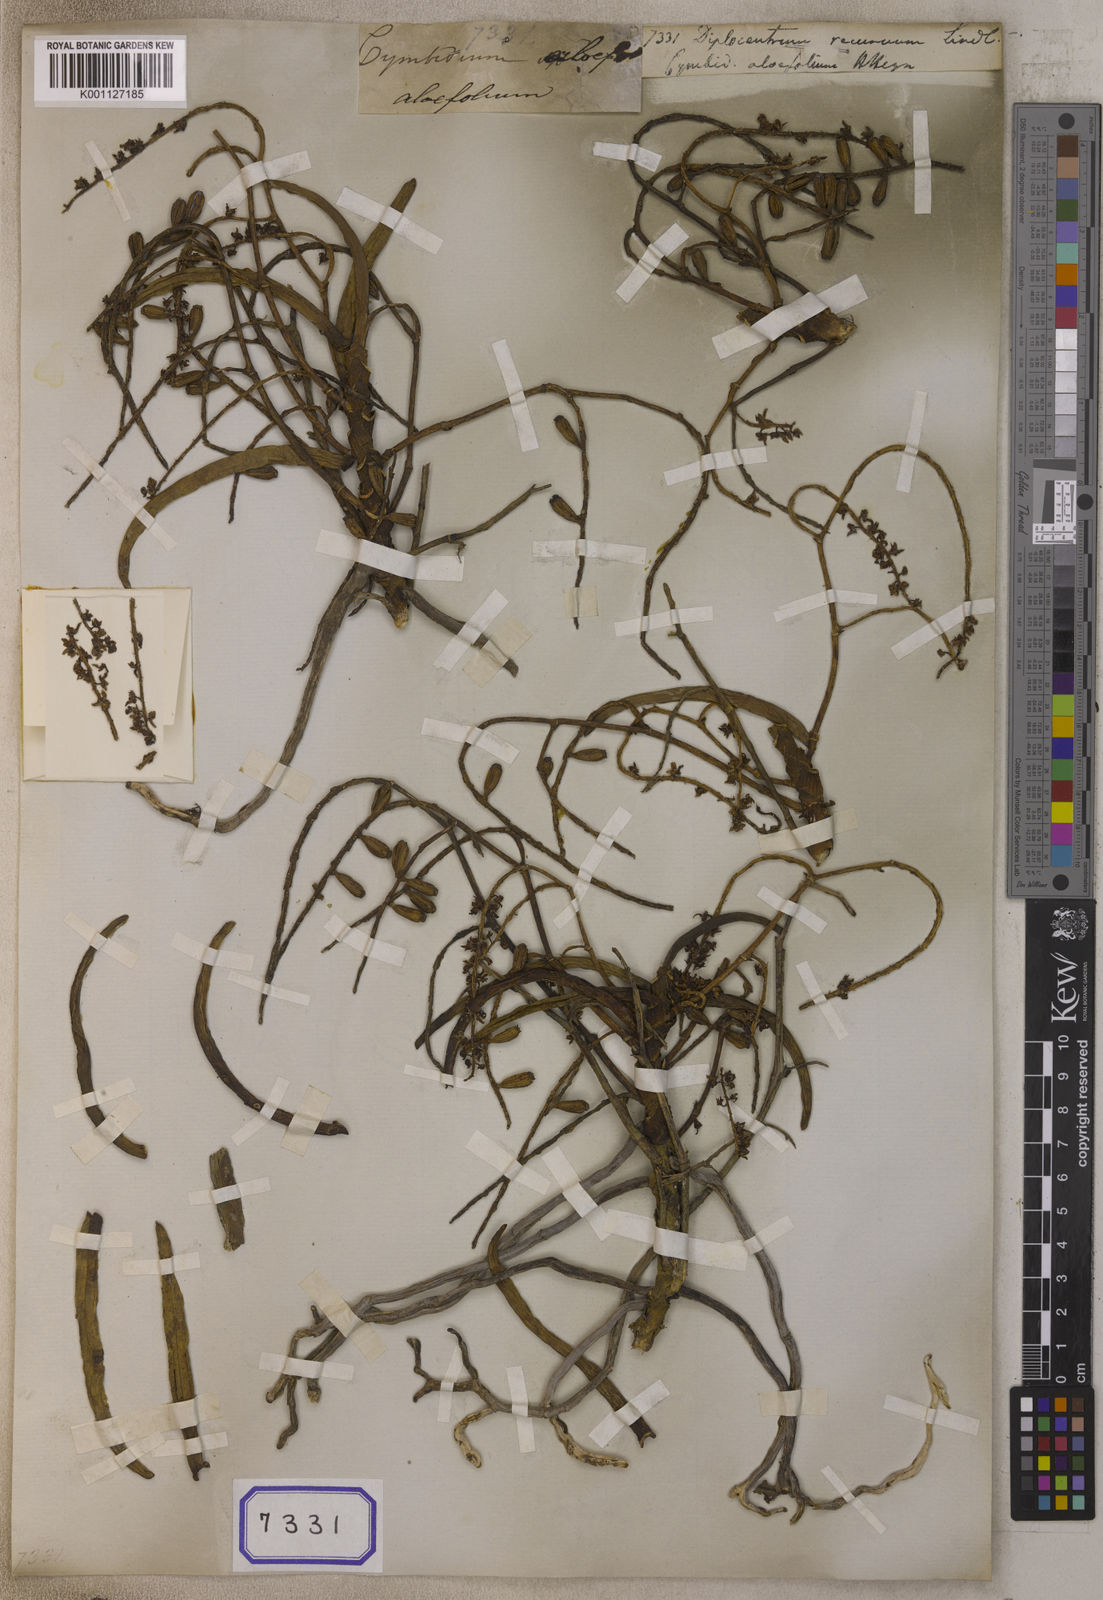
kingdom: Plantae
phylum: Tracheophyta
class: Liliopsida
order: Asparagales
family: Orchidaceae
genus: Diplocentrum
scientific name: Diplocentrum recurvum
